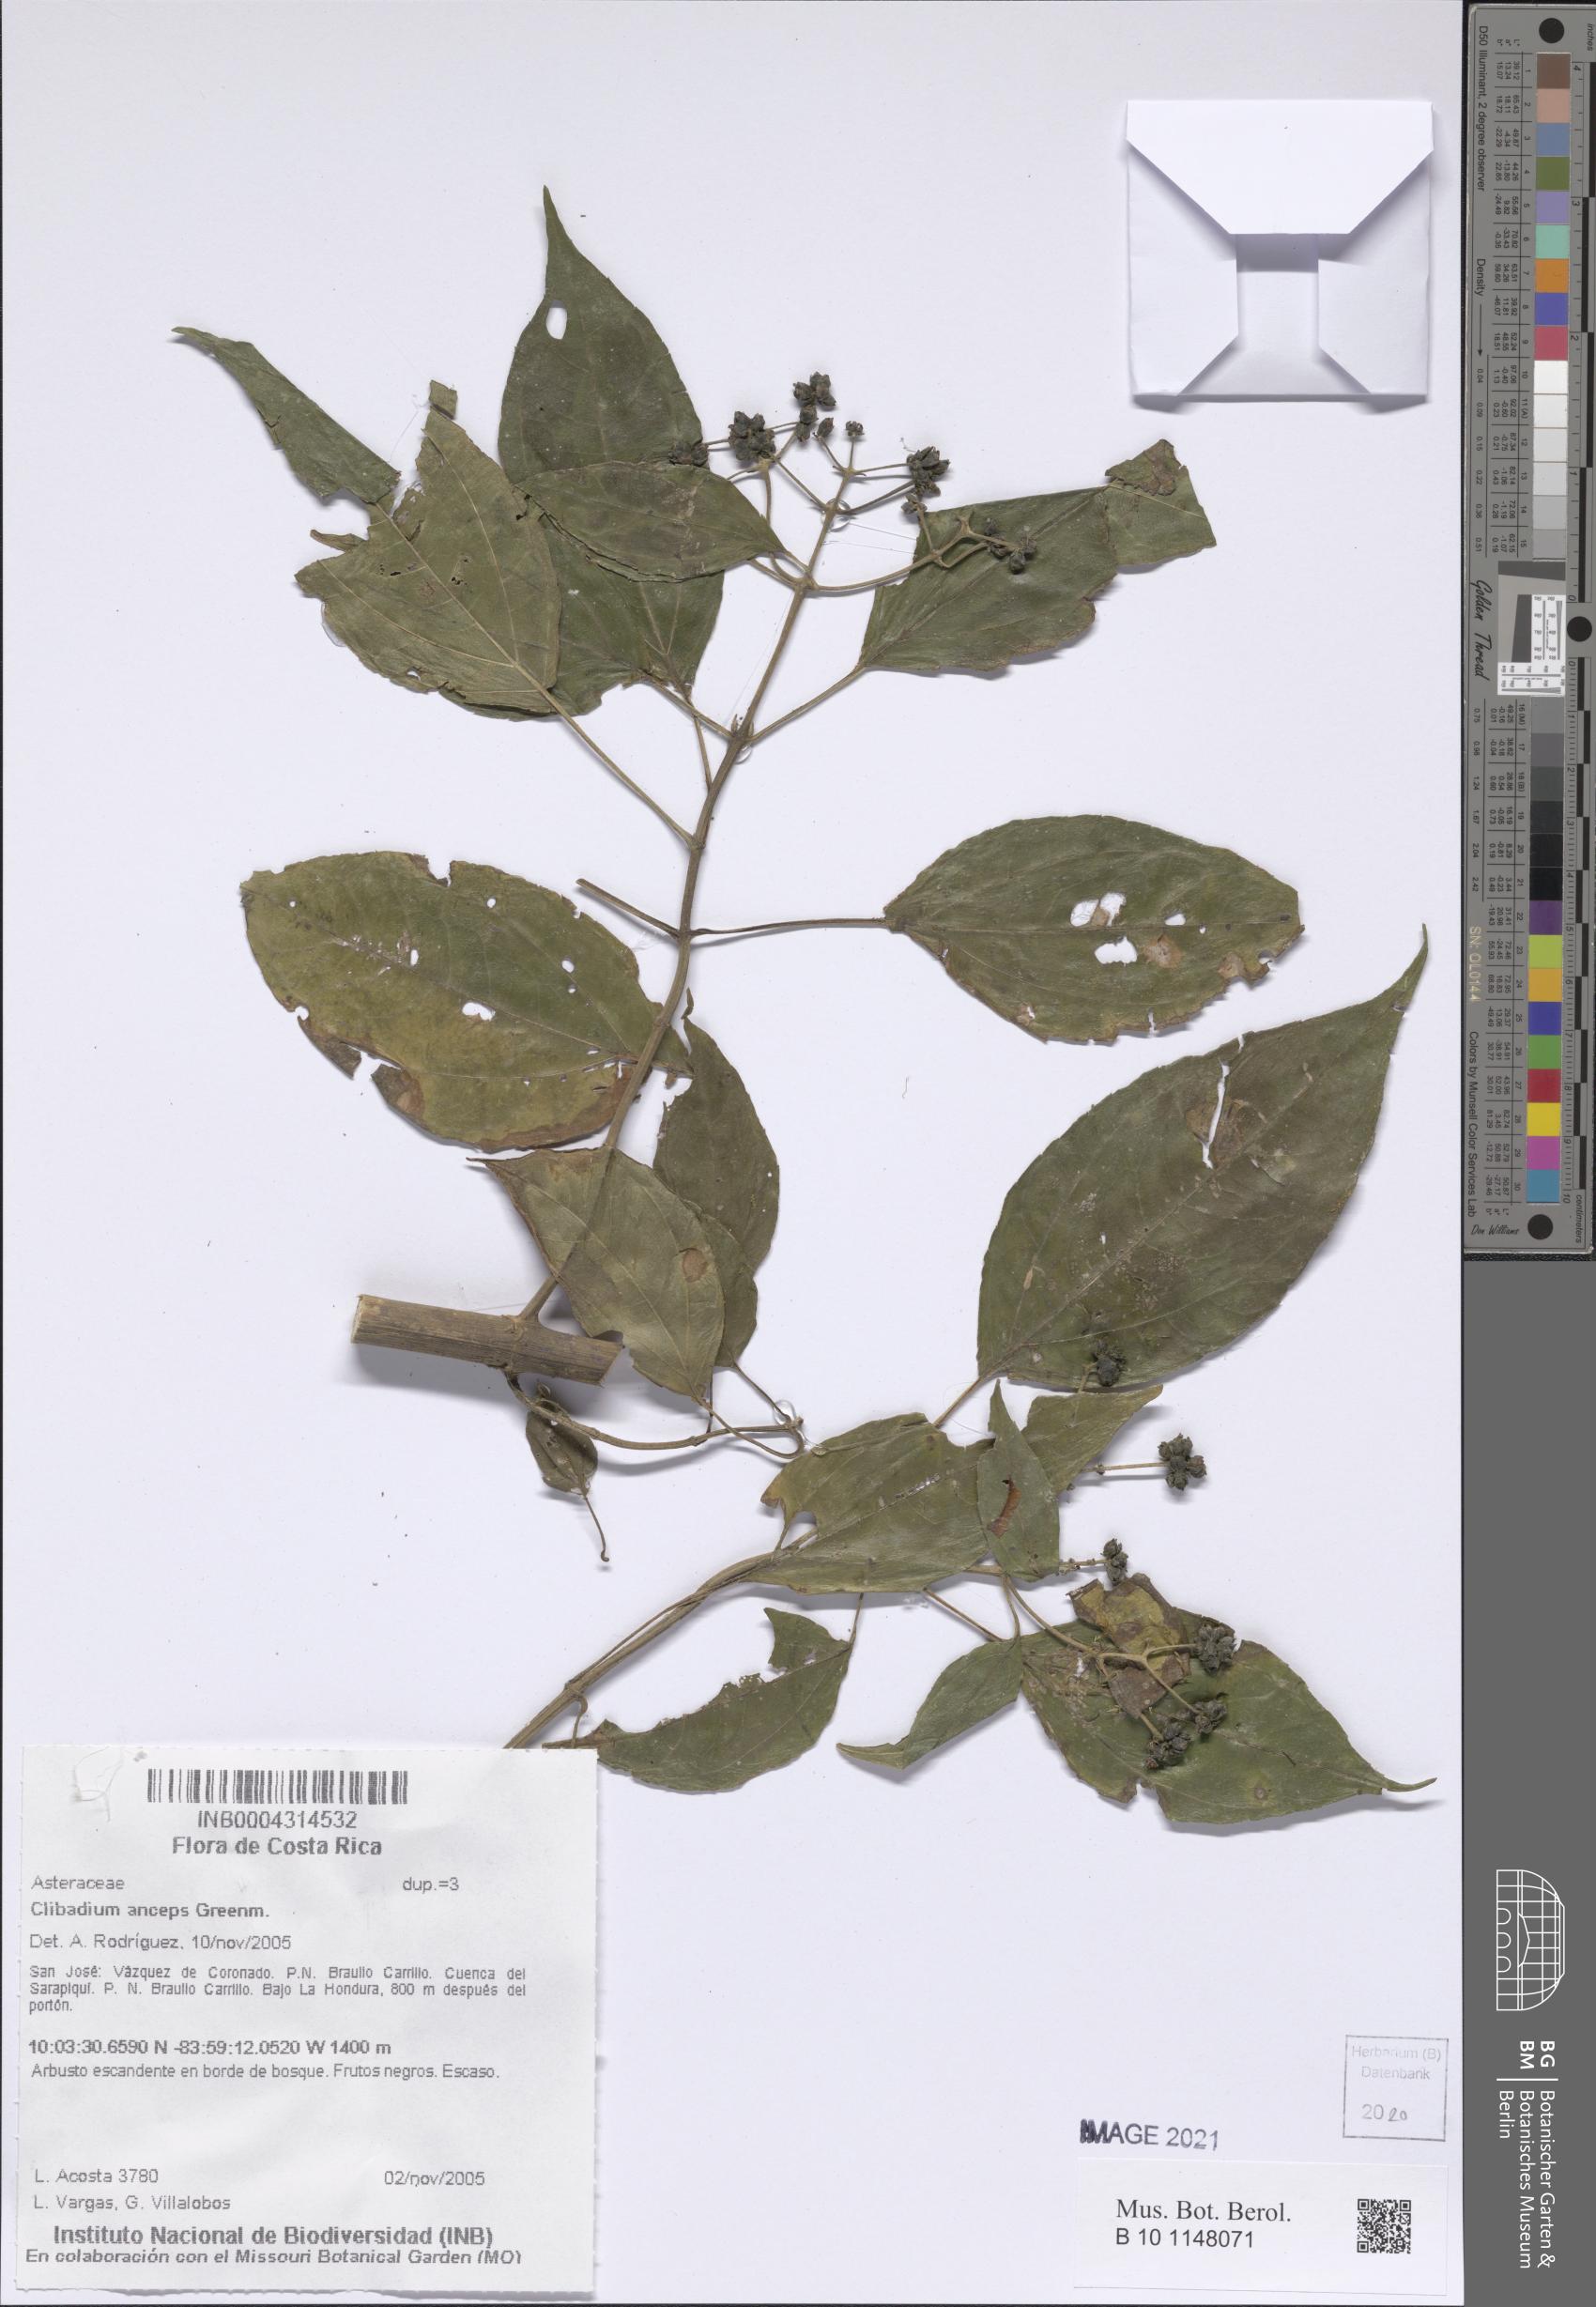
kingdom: Plantae
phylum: Tracheophyta
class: Magnoliopsida
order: Asterales
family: Asteraceae
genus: Clibadium
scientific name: Clibadium anceps
